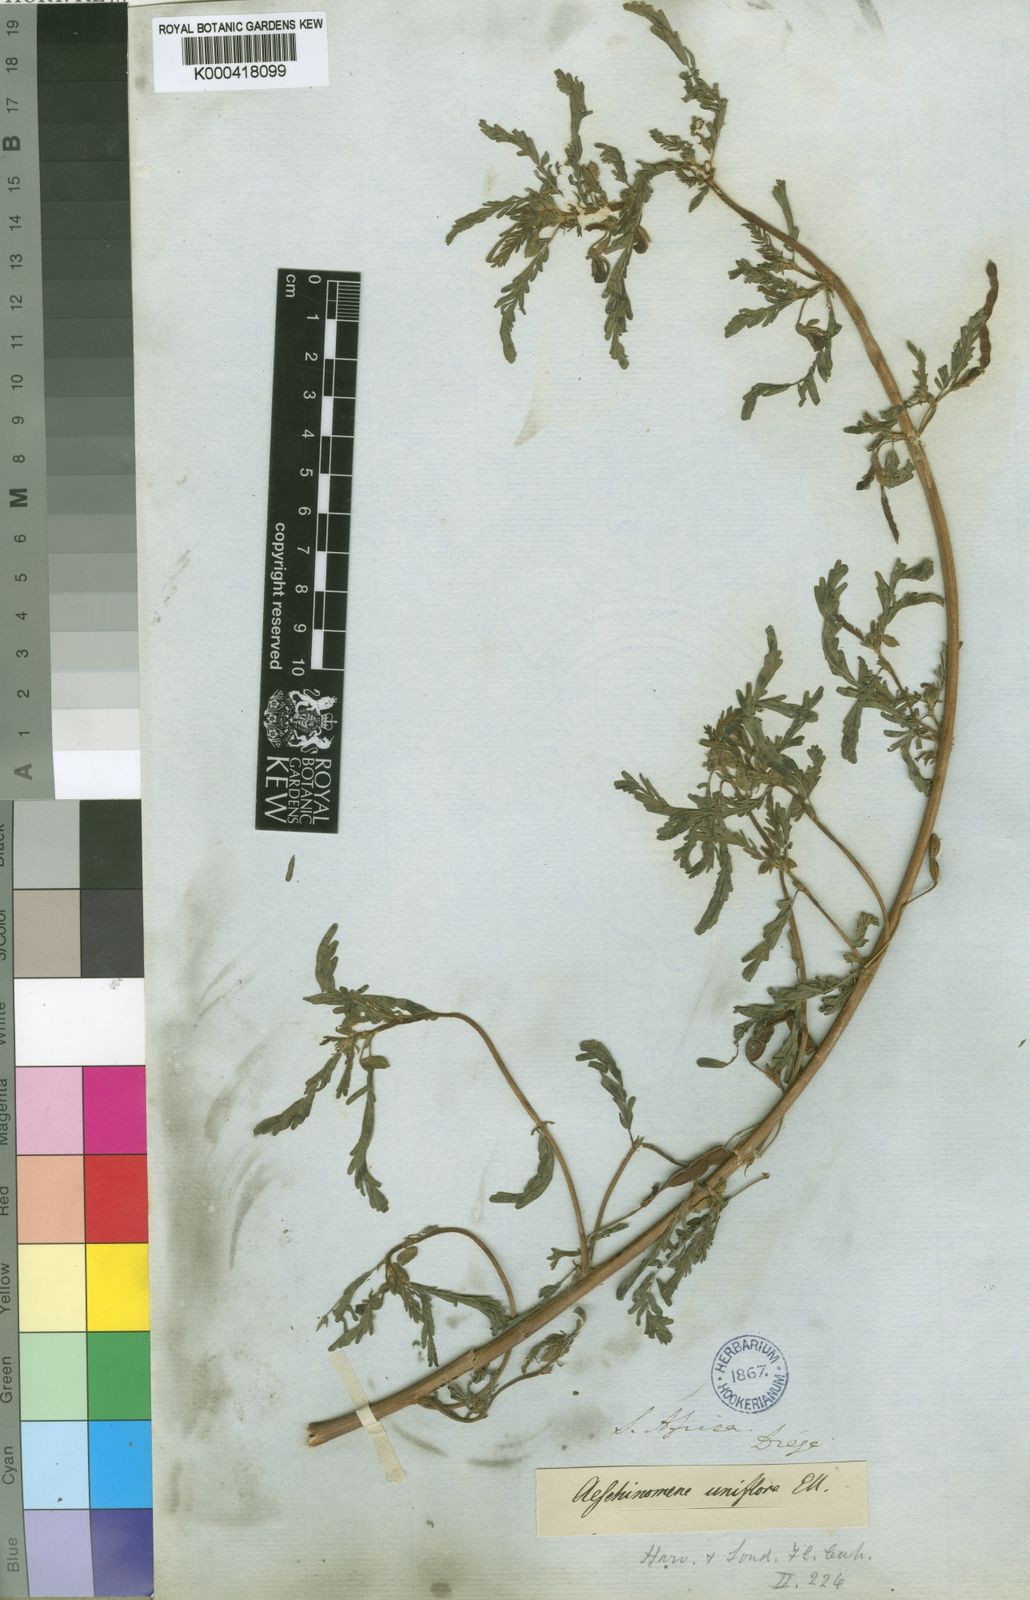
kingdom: Plantae
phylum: Tracheophyta
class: Magnoliopsida
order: Fabales
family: Fabaceae
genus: Aeschynomene
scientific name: Aeschynomene uniflora
